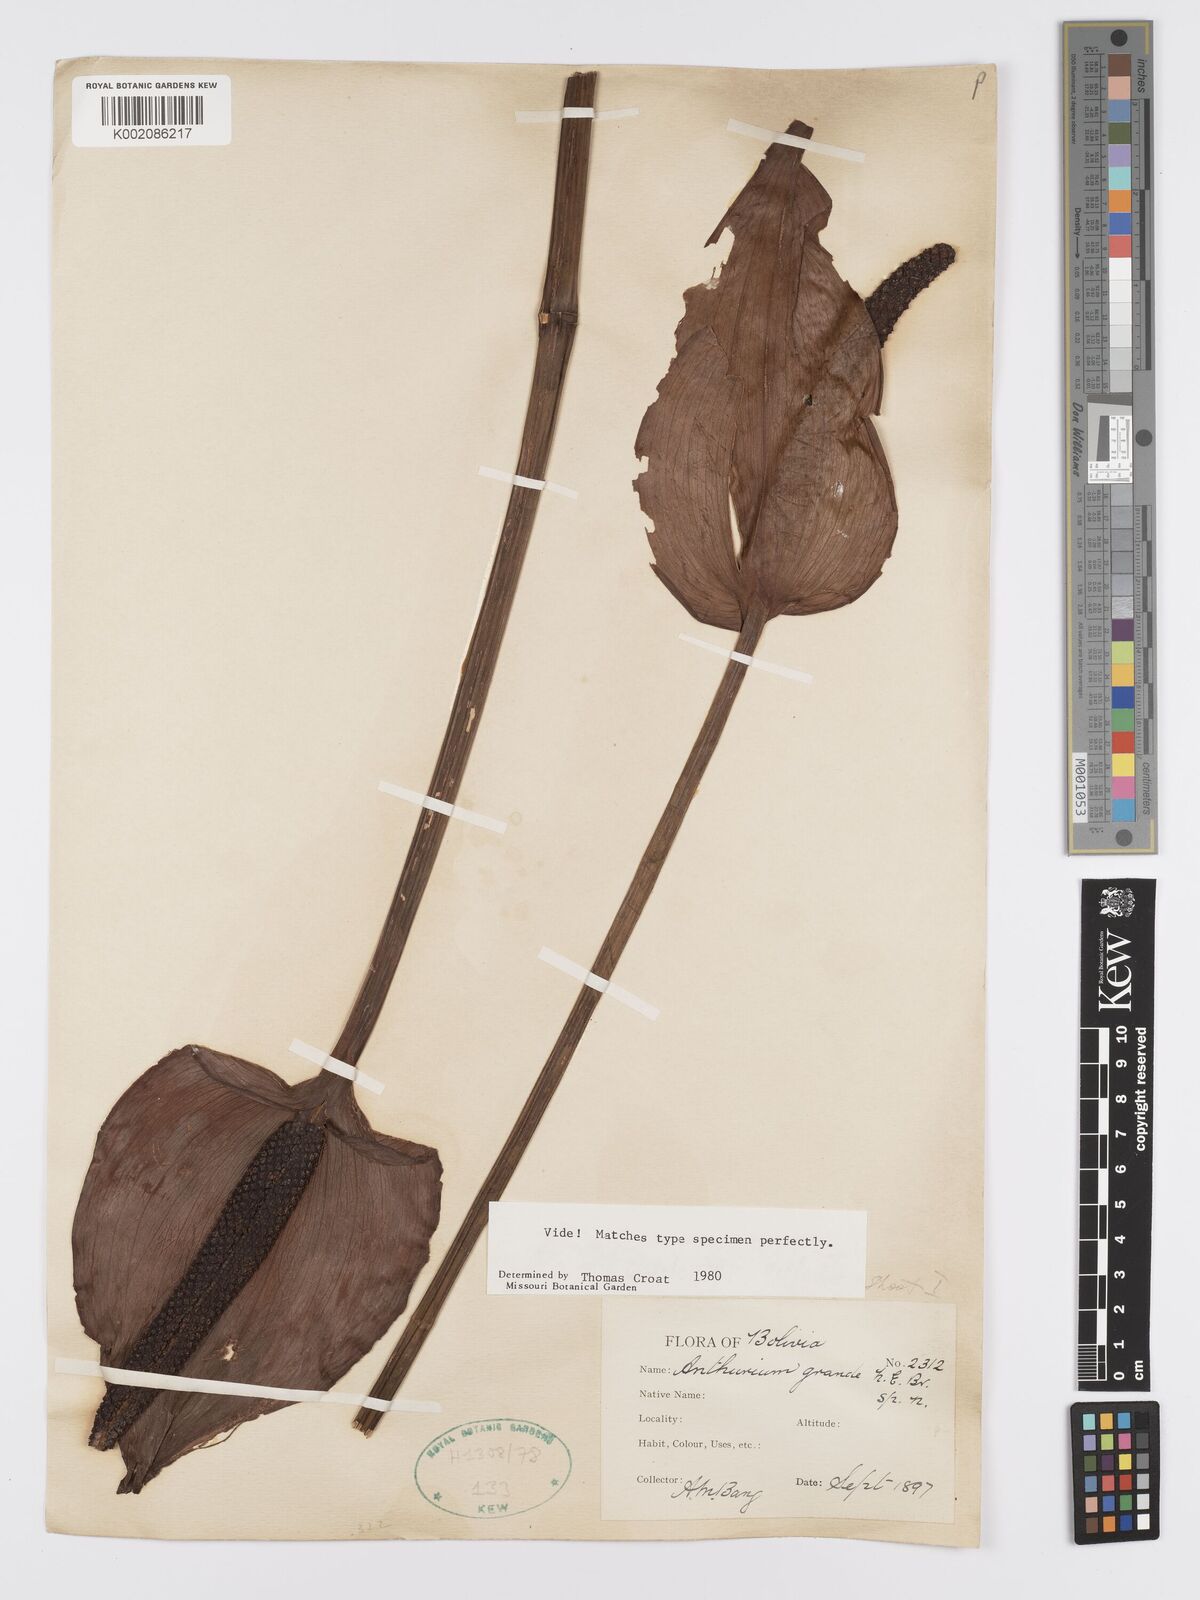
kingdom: Plantae
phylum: Tracheophyta
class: Liliopsida
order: Alismatales
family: Araceae
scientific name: Araceae
